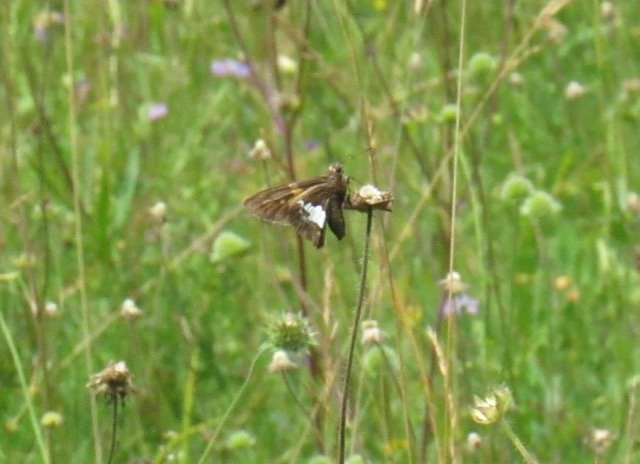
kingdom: Animalia
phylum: Arthropoda
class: Insecta
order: Lepidoptera
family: Hesperiidae
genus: Epargyreus
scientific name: Epargyreus clarus
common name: Silver-spotted Skipper
